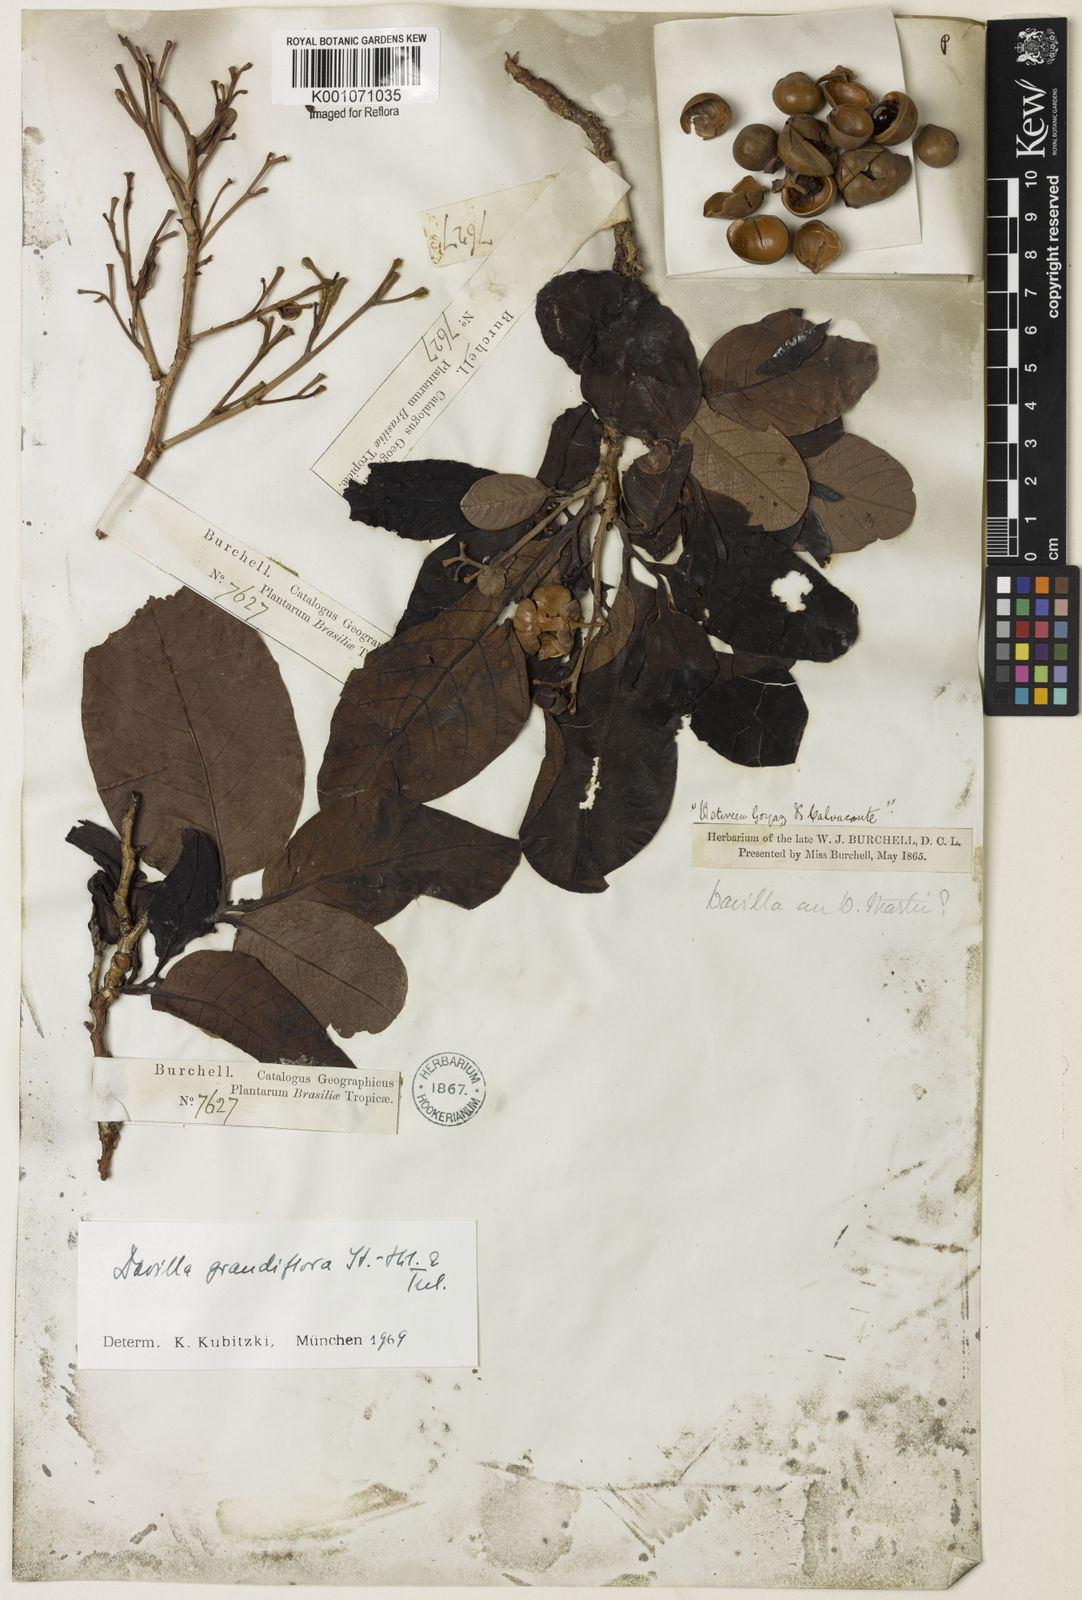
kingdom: Plantae
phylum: Tracheophyta
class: Magnoliopsida
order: Dilleniales
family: Dilleniaceae
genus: Davilla
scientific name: Davilla grandiflora
